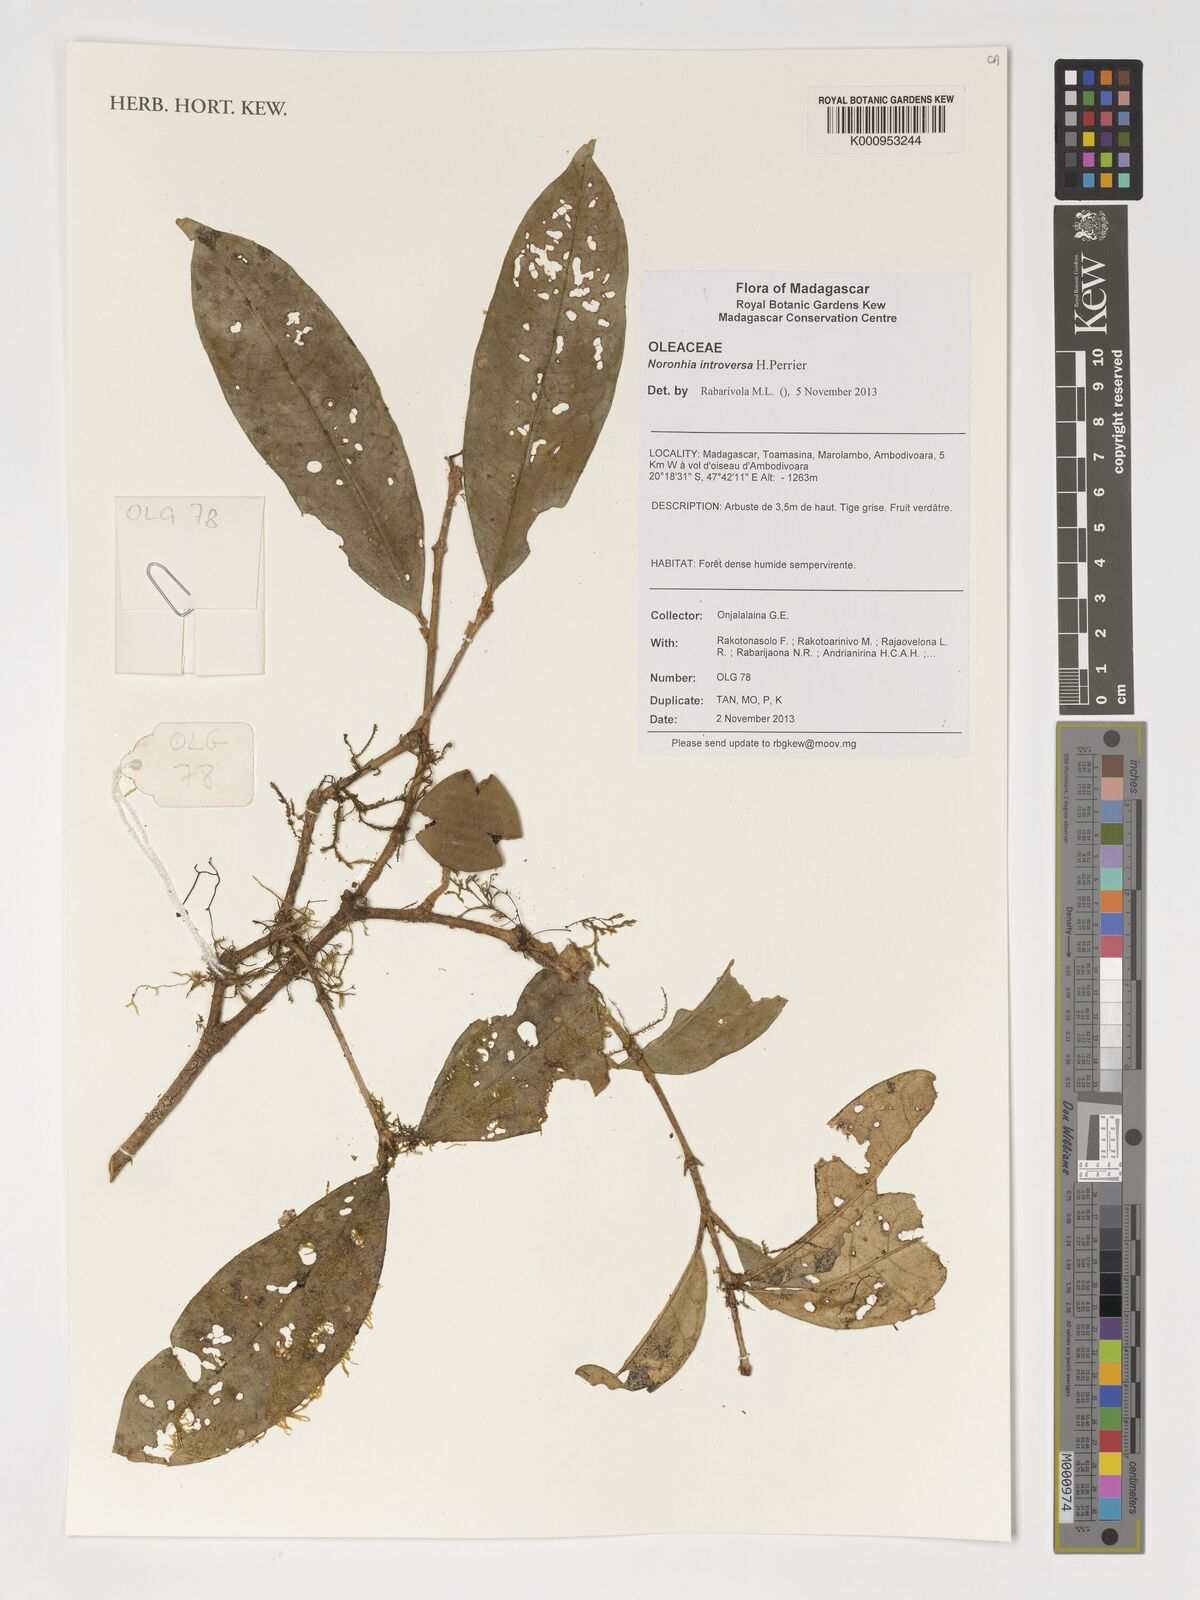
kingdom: Plantae
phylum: Tracheophyta
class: Magnoliopsida
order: Lamiales
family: Oleaceae
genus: Noronhia
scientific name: Noronhia introversa
